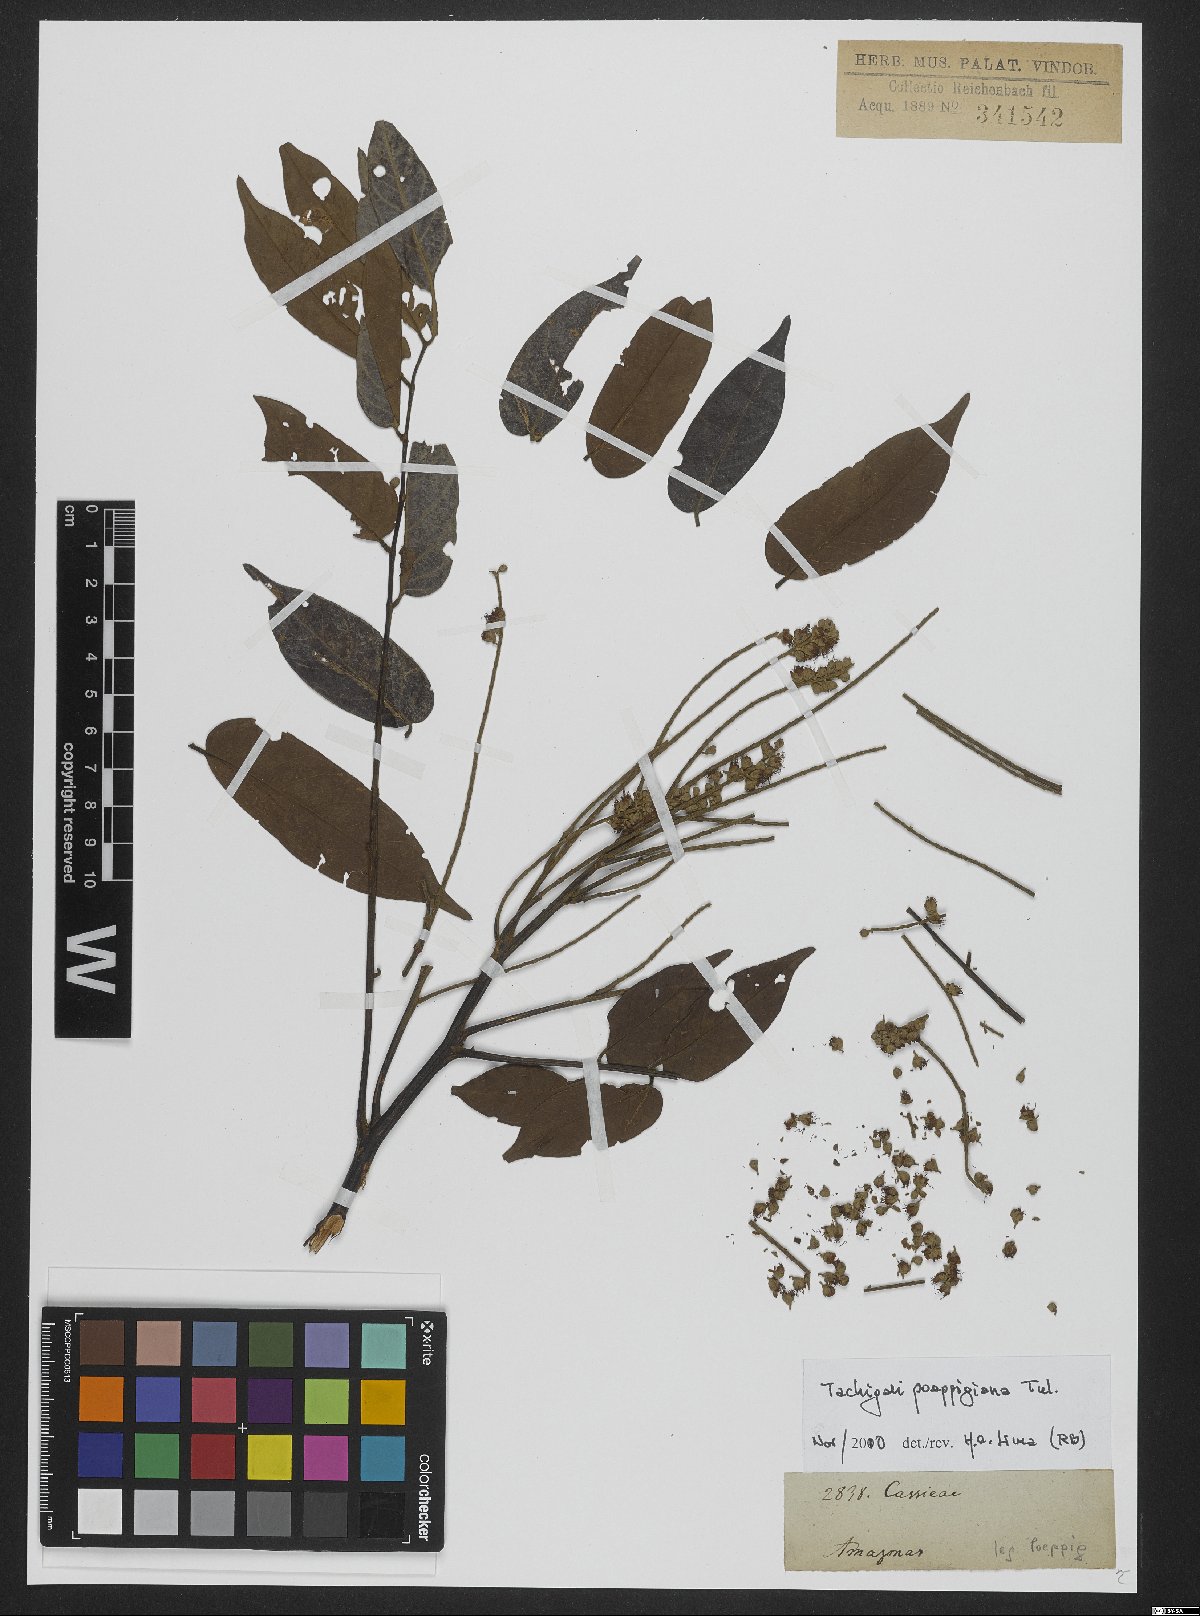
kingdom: Plantae
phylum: Tracheophyta
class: Magnoliopsida
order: Fabales
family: Fabaceae
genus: Tachigali
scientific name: Tachigali poeppigiana
